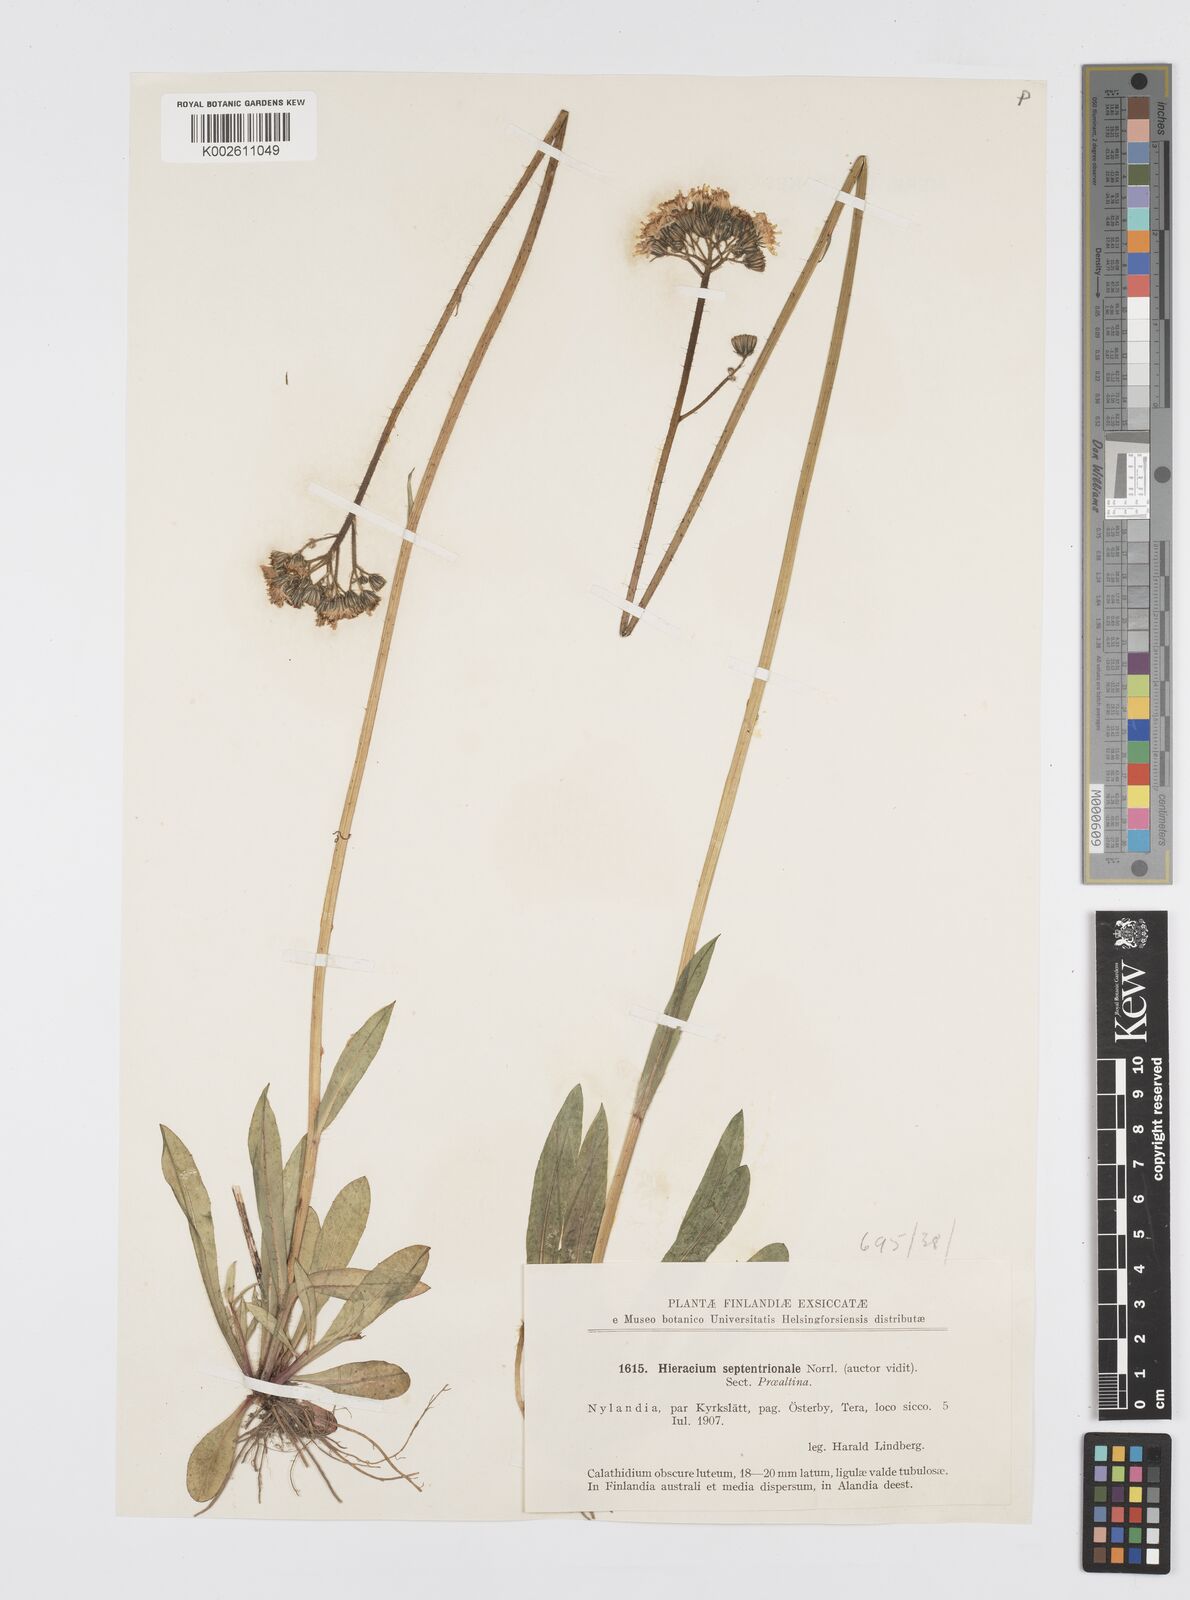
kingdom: Plantae
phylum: Tracheophyta
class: Magnoliopsida
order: Asterales
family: Asteraceae
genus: Pilosella
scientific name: Pilosella piloselloides
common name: Glaucous king-devil
